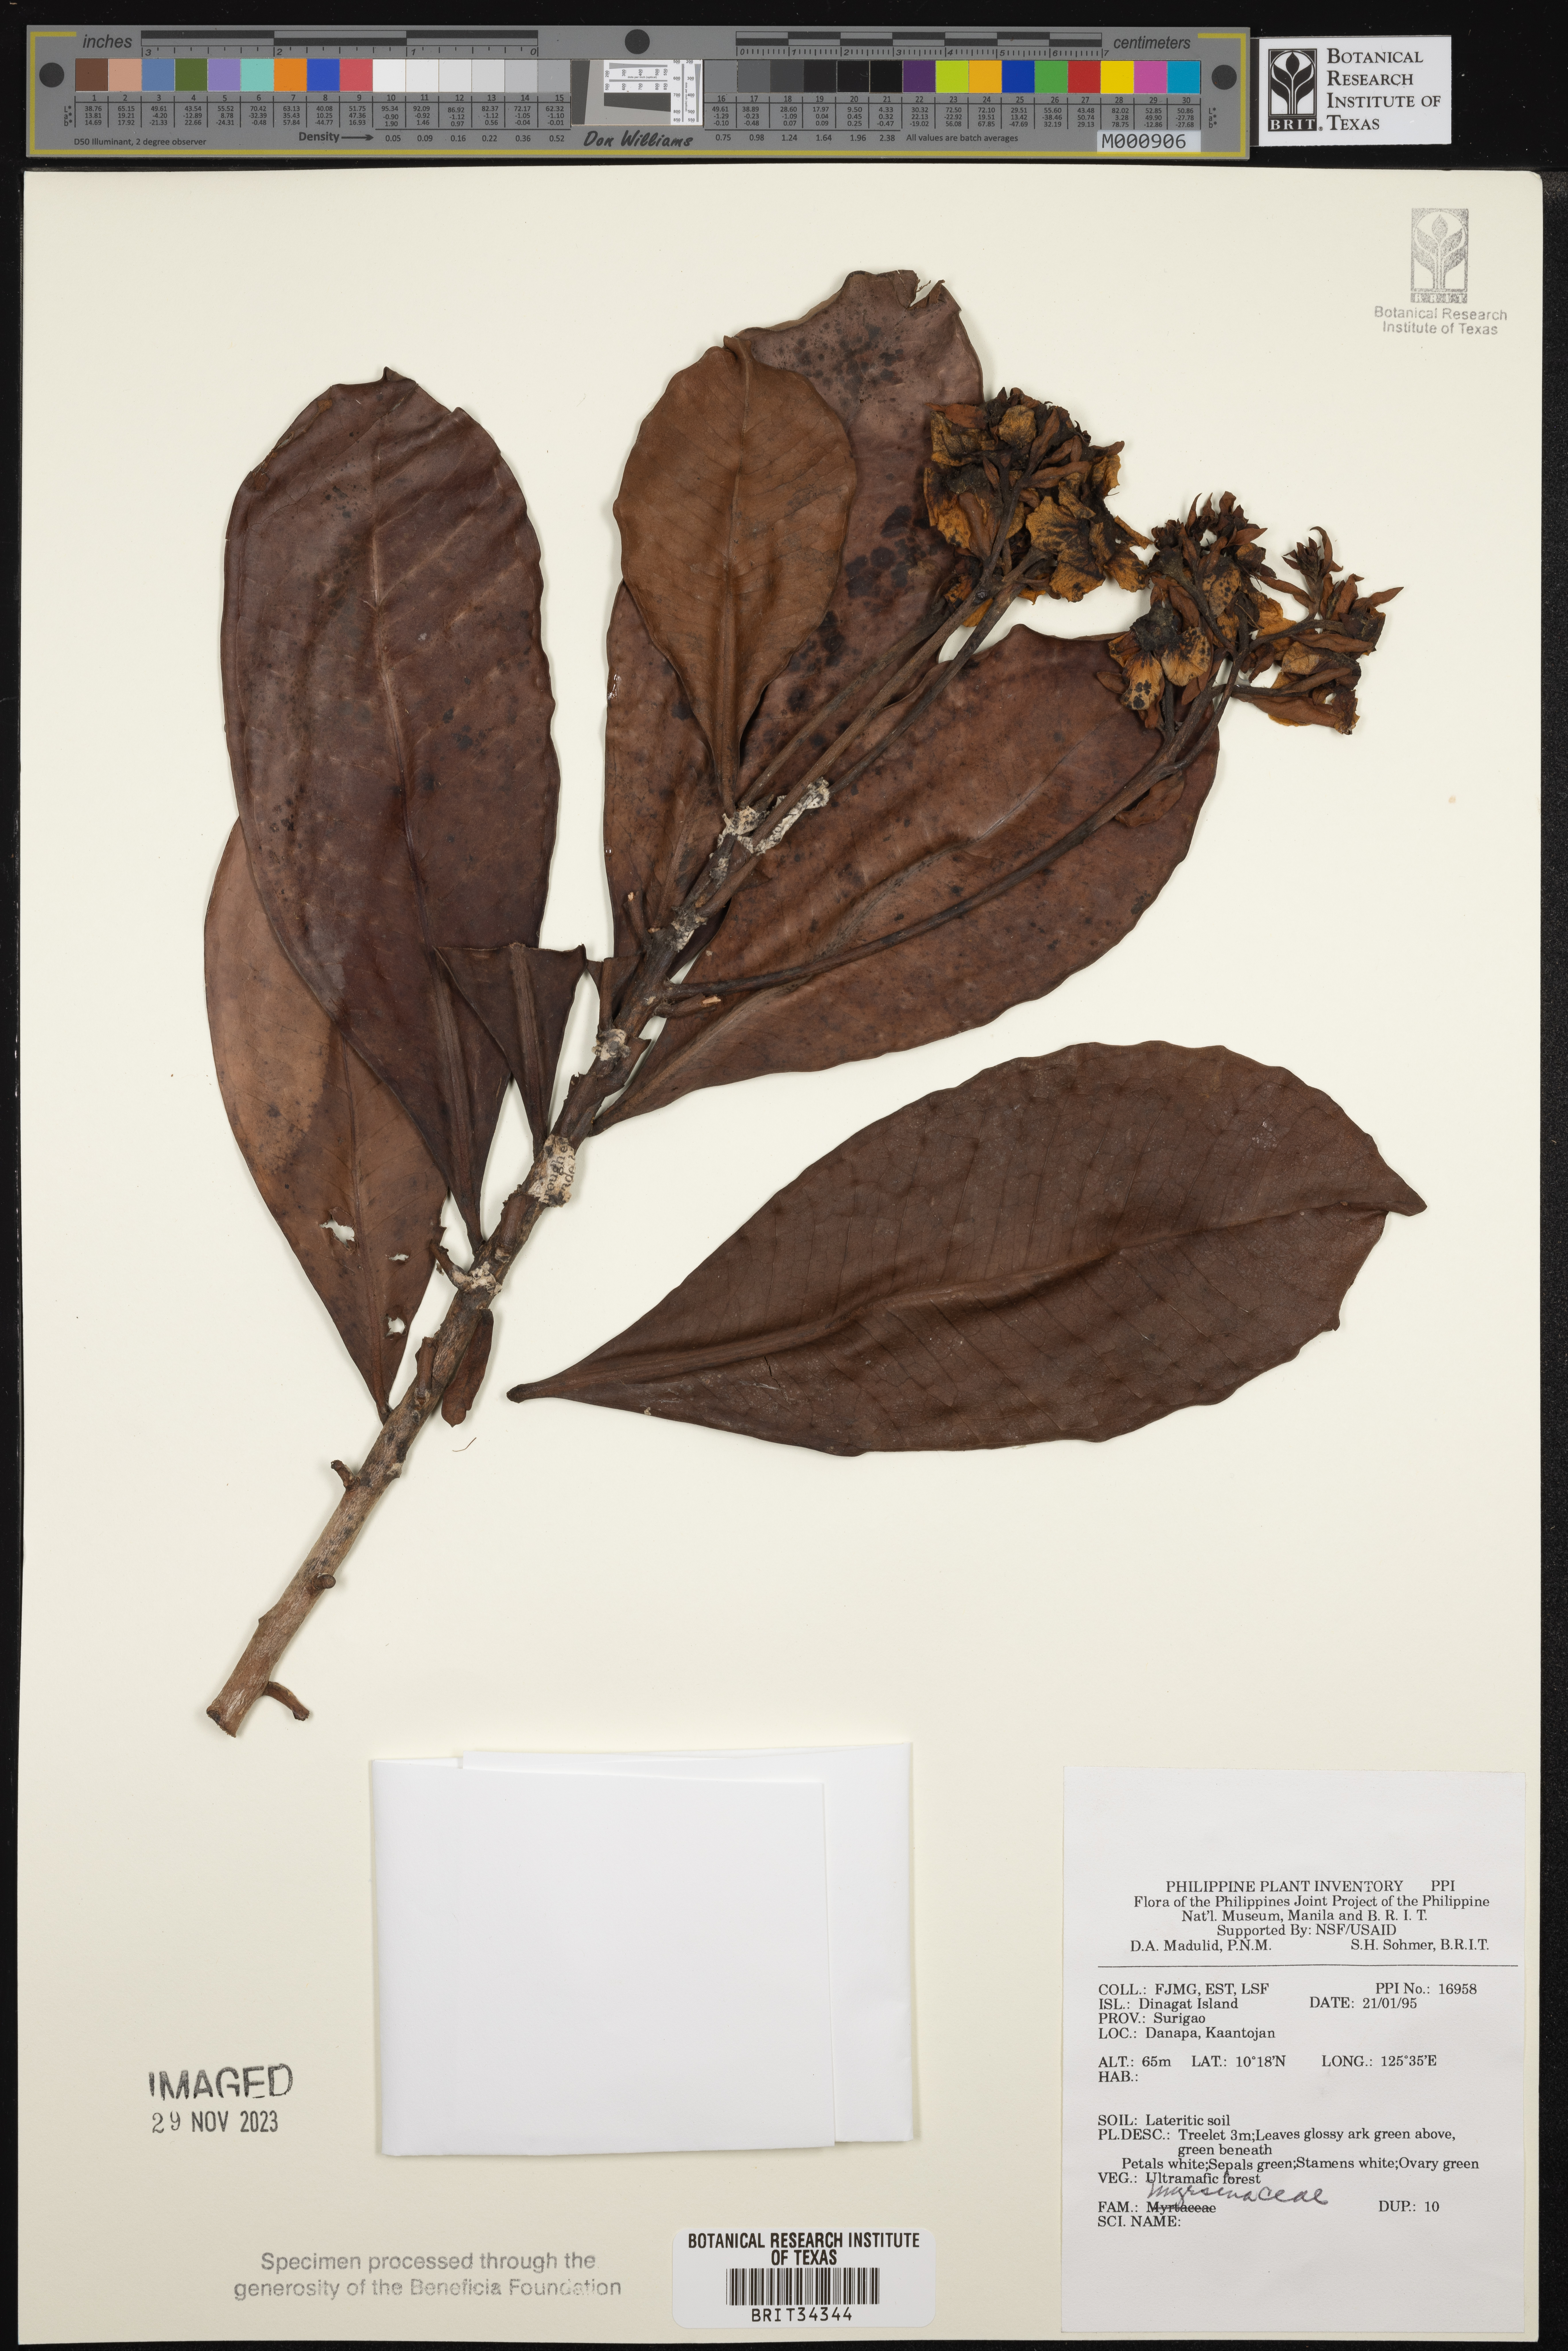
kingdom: Plantae
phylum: Tracheophyta
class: Magnoliopsida
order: Ericales
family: Primulaceae
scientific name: Primulaceae
